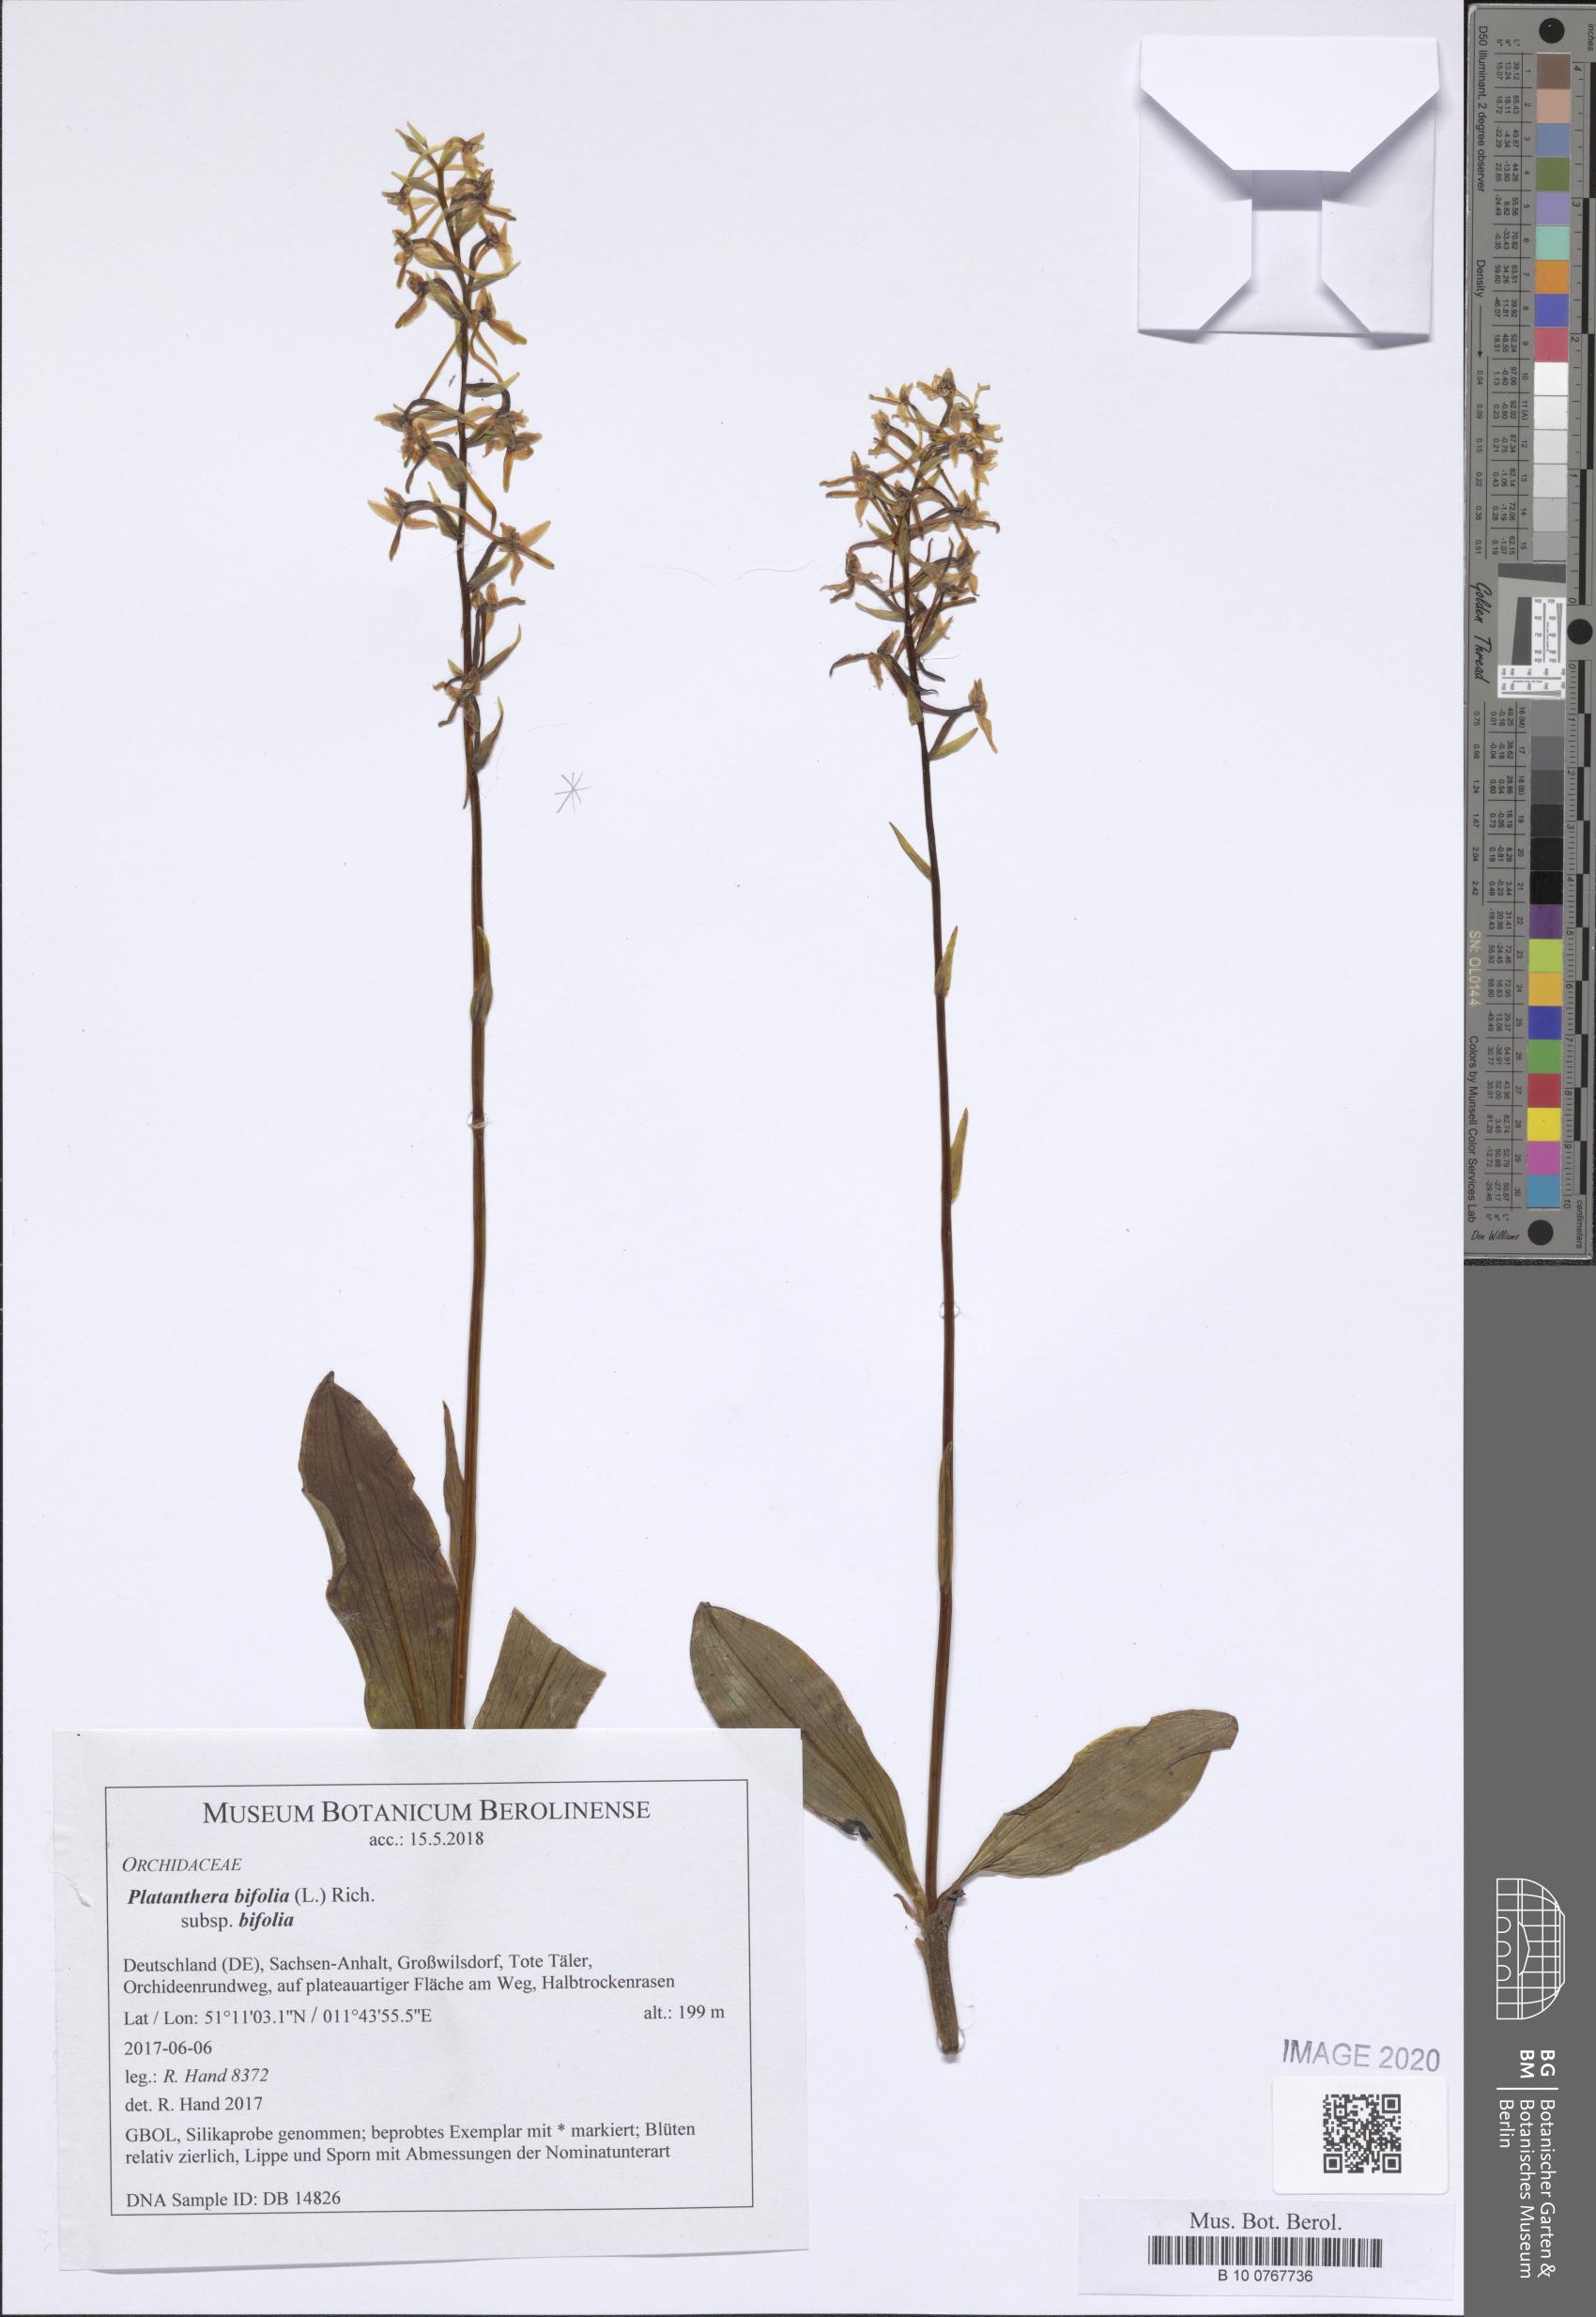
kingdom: Plantae
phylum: Tracheophyta
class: Liliopsida
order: Asparagales
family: Orchidaceae
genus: Platanthera
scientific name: Platanthera bifolia
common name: Lesser butterfly-orchid
